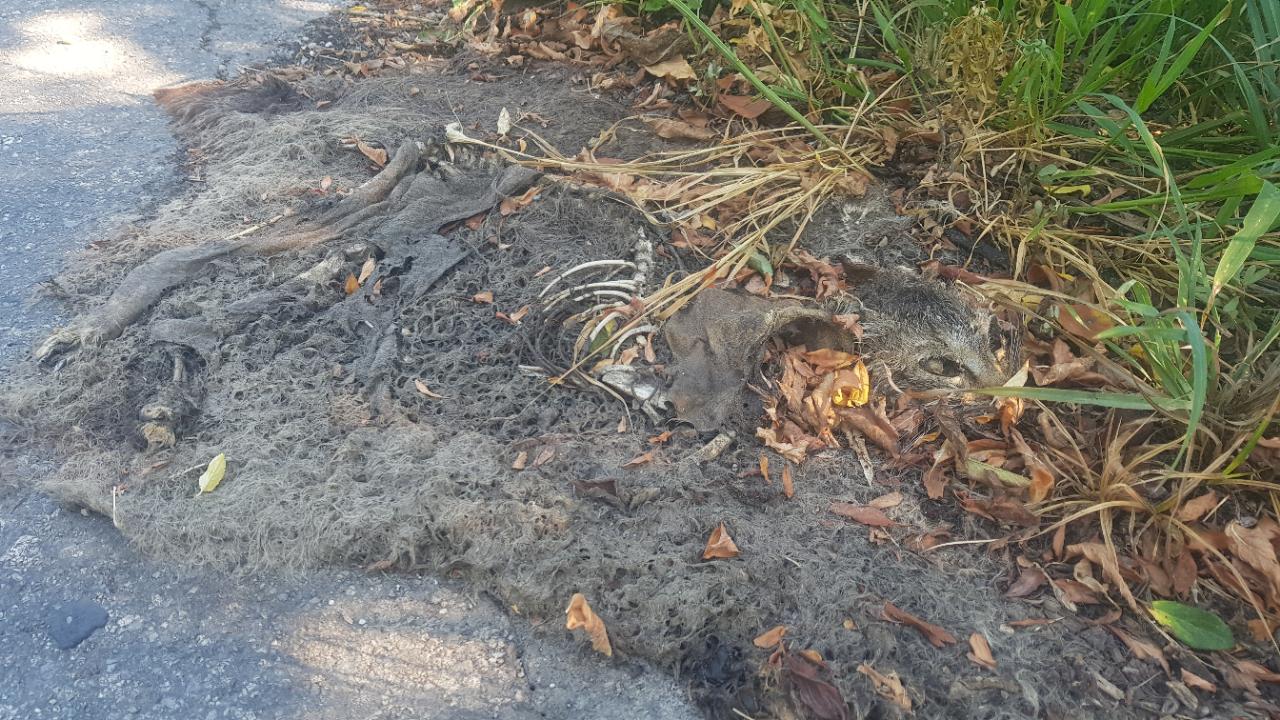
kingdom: Animalia
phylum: Chordata
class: Mammalia
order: Carnivora
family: Felidae
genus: Felis
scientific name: Felis catus
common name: Domestic cat
